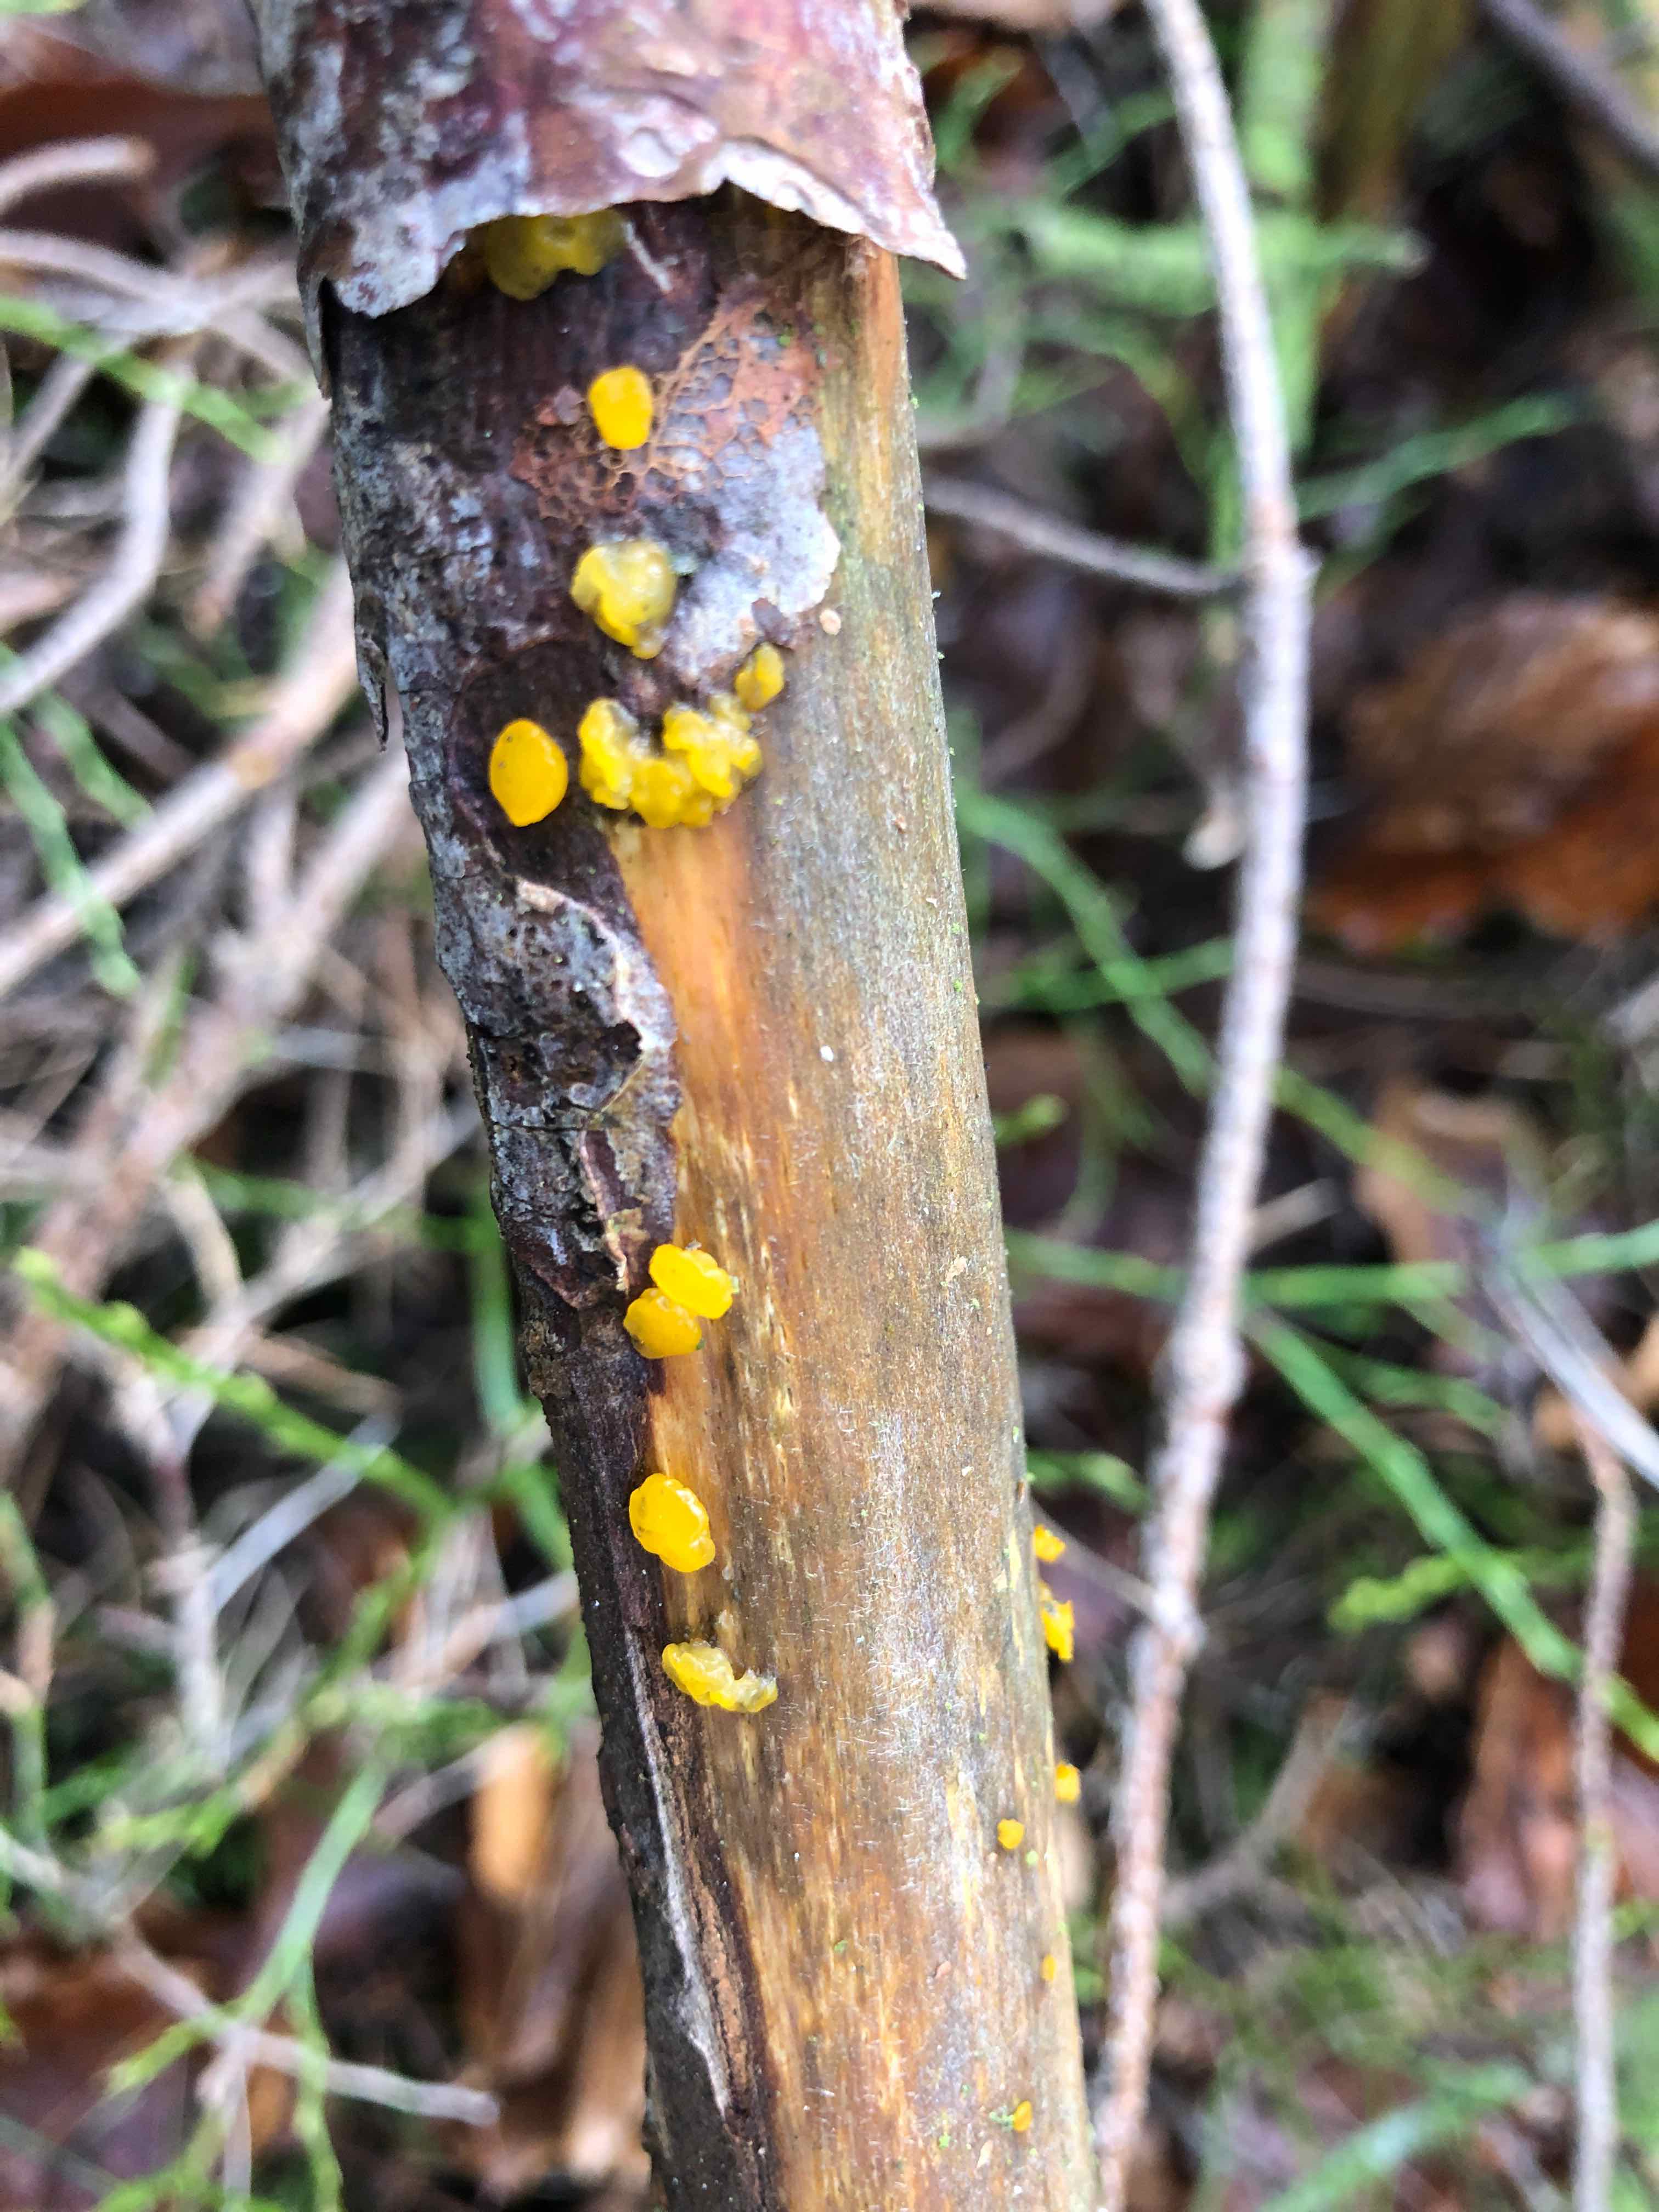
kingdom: Fungi
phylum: Basidiomycota
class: Dacrymycetes
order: Dacrymycetales
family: Dacrymycetaceae
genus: Dacrymyces
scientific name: Dacrymyces
